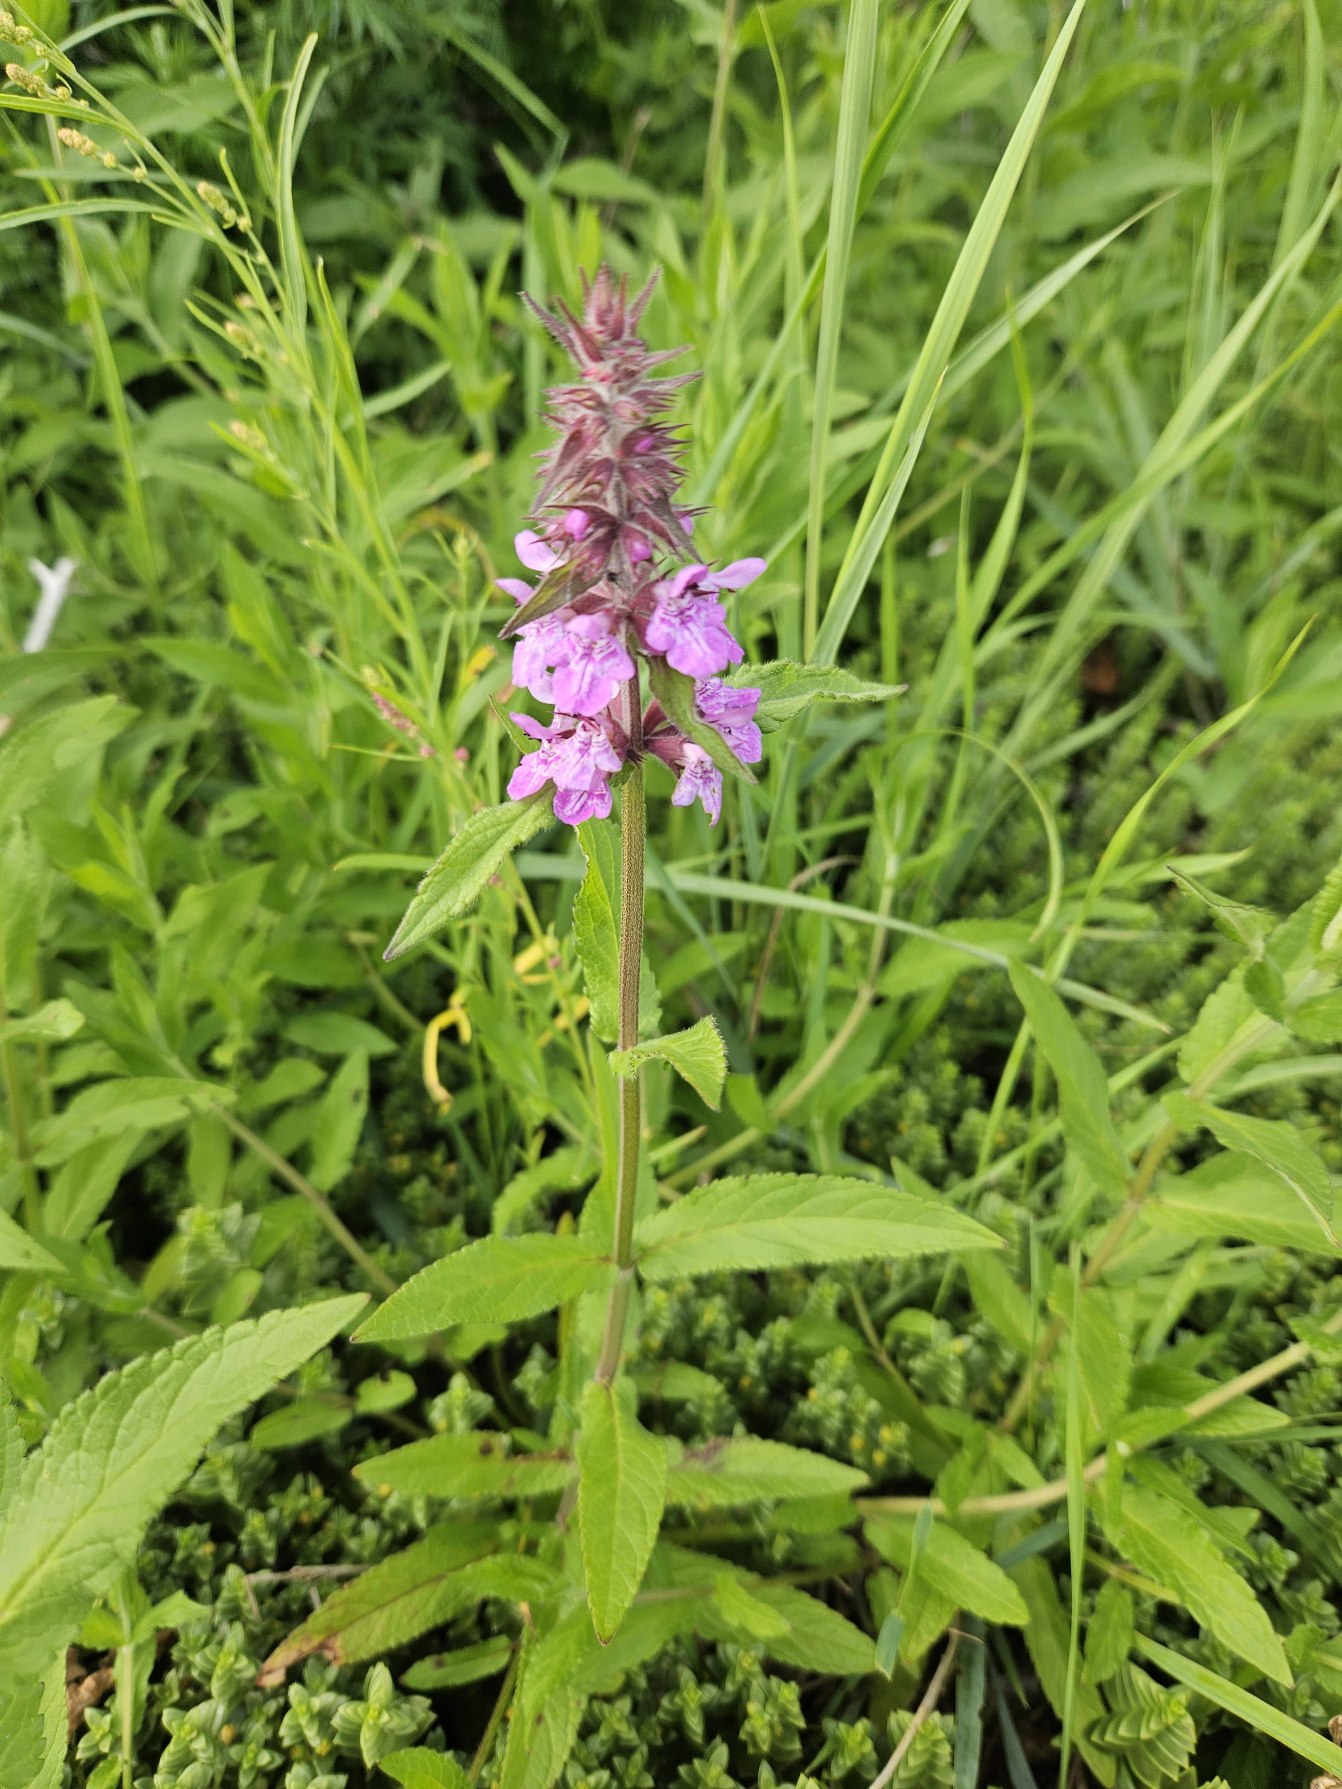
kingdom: Plantae
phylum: Tracheophyta
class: Magnoliopsida
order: Lamiales
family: Lamiaceae
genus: Stachys
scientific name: Stachys palustris
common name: Kær-galtetand
